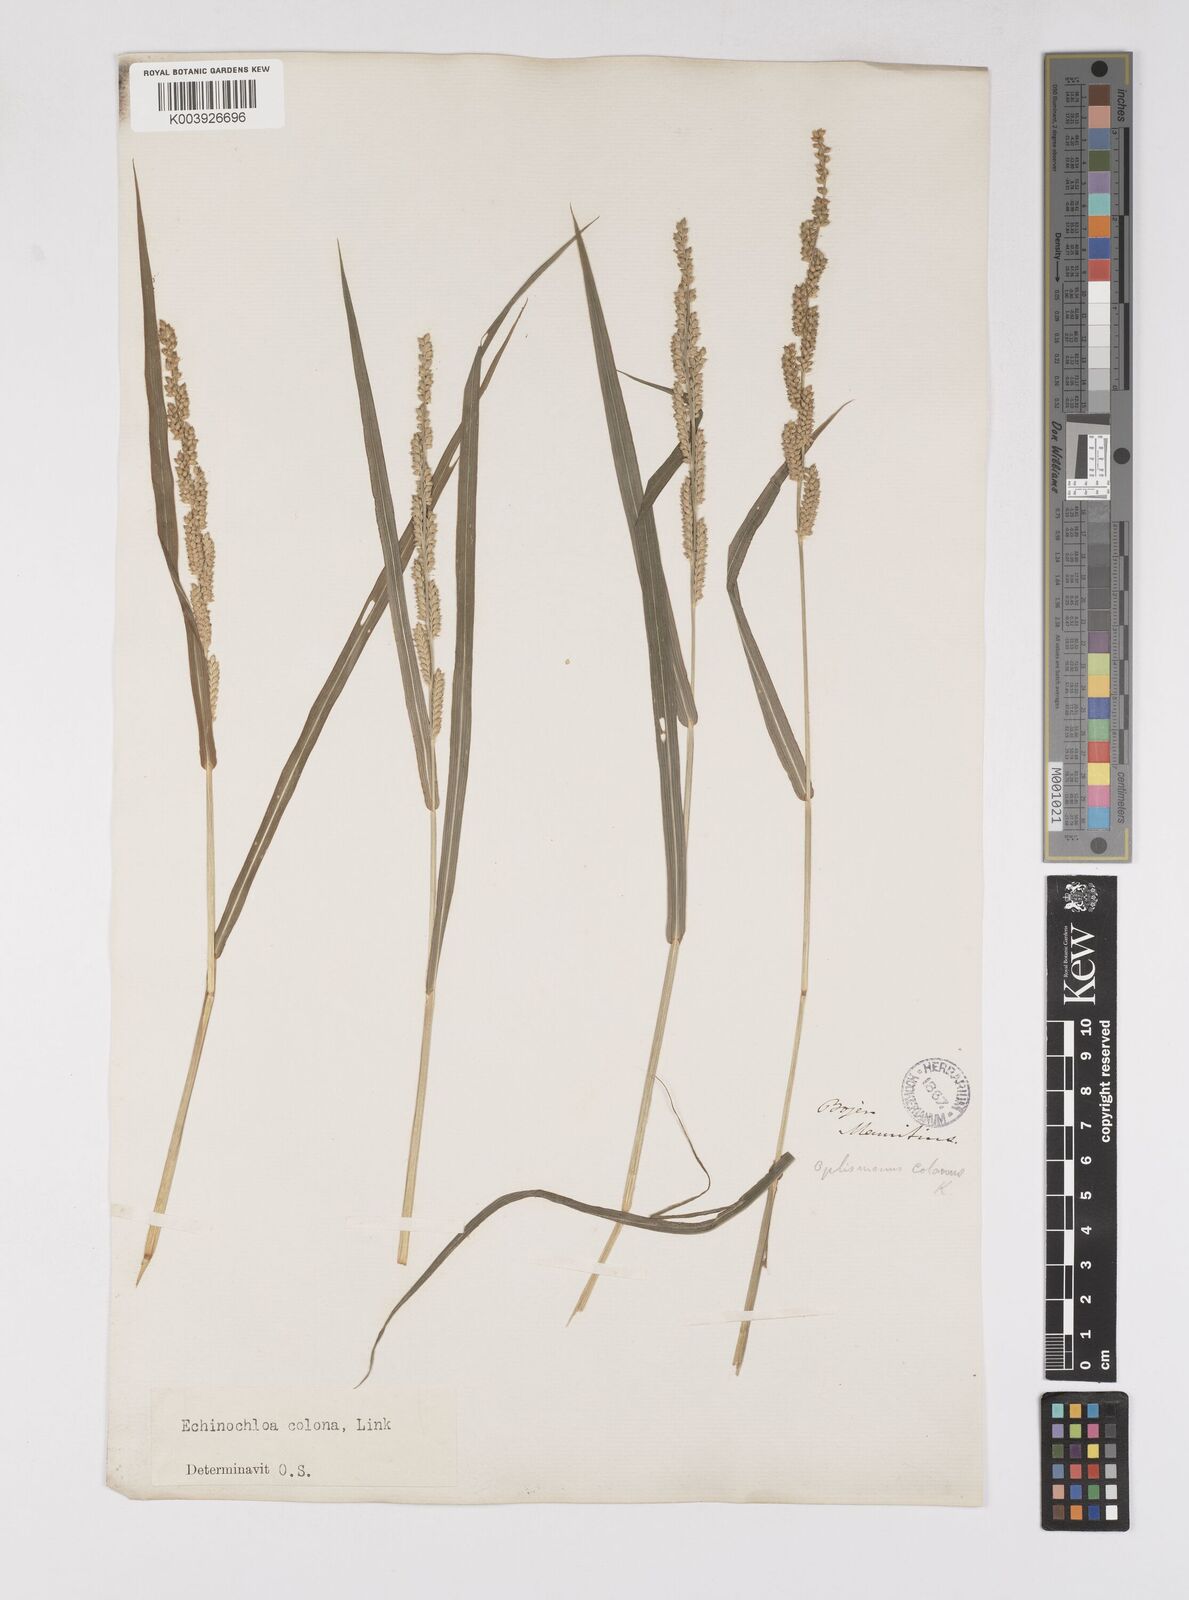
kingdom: Plantae
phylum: Tracheophyta
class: Liliopsida
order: Poales
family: Poaceae
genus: Echinochloa
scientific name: Echinochloa colonum
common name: Jungle rice
